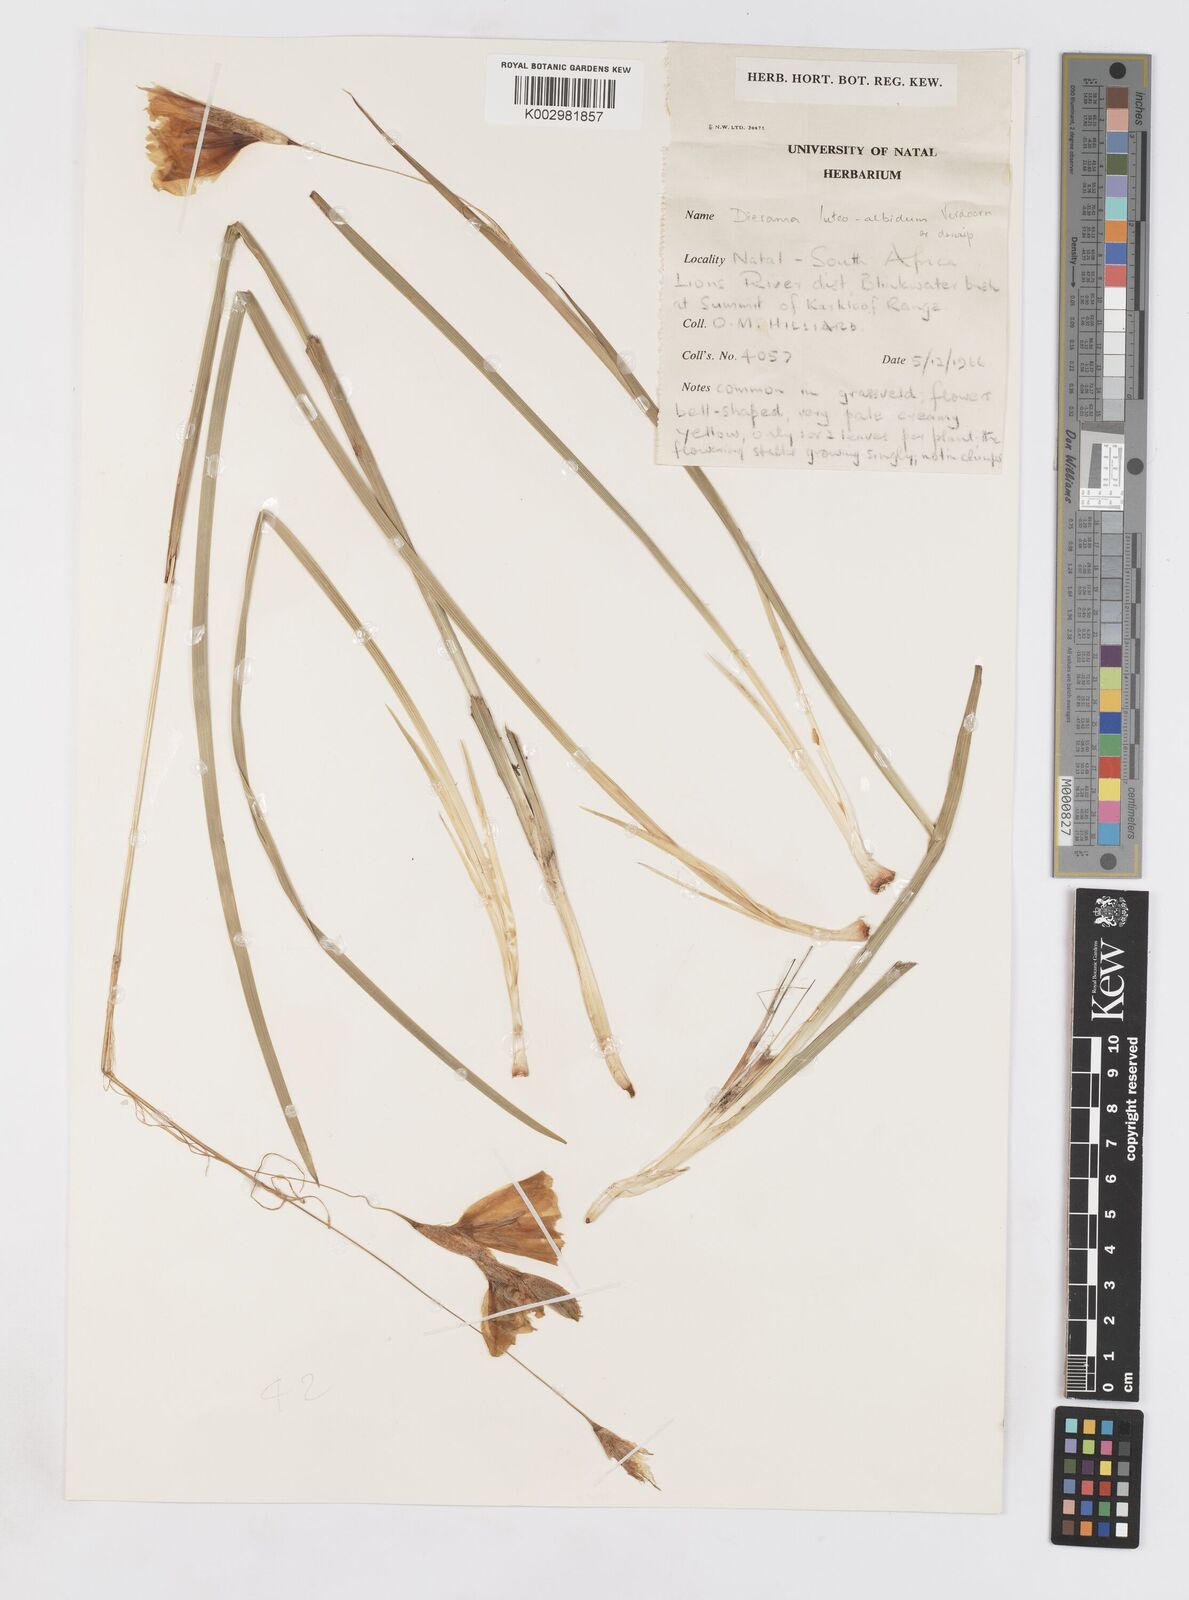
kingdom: Plantae
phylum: Tracheophyta
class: Liliopsida
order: Asparagales
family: Iridaceae
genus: Dierama
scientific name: Dierama luteoalbidum
